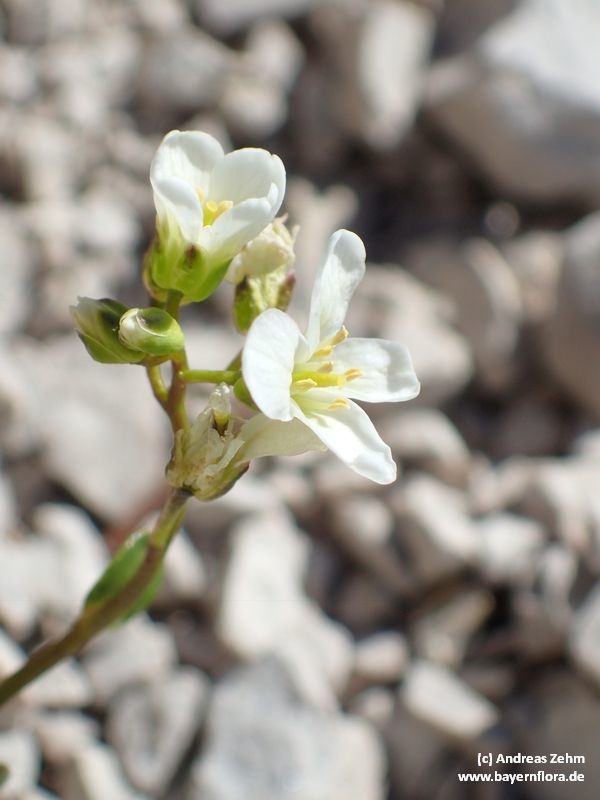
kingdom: Plantae
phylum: Tracheophyta
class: Magnoliopsida
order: Brassicales
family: Brassicaceae
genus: Arabis
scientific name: Arabis stellulata
